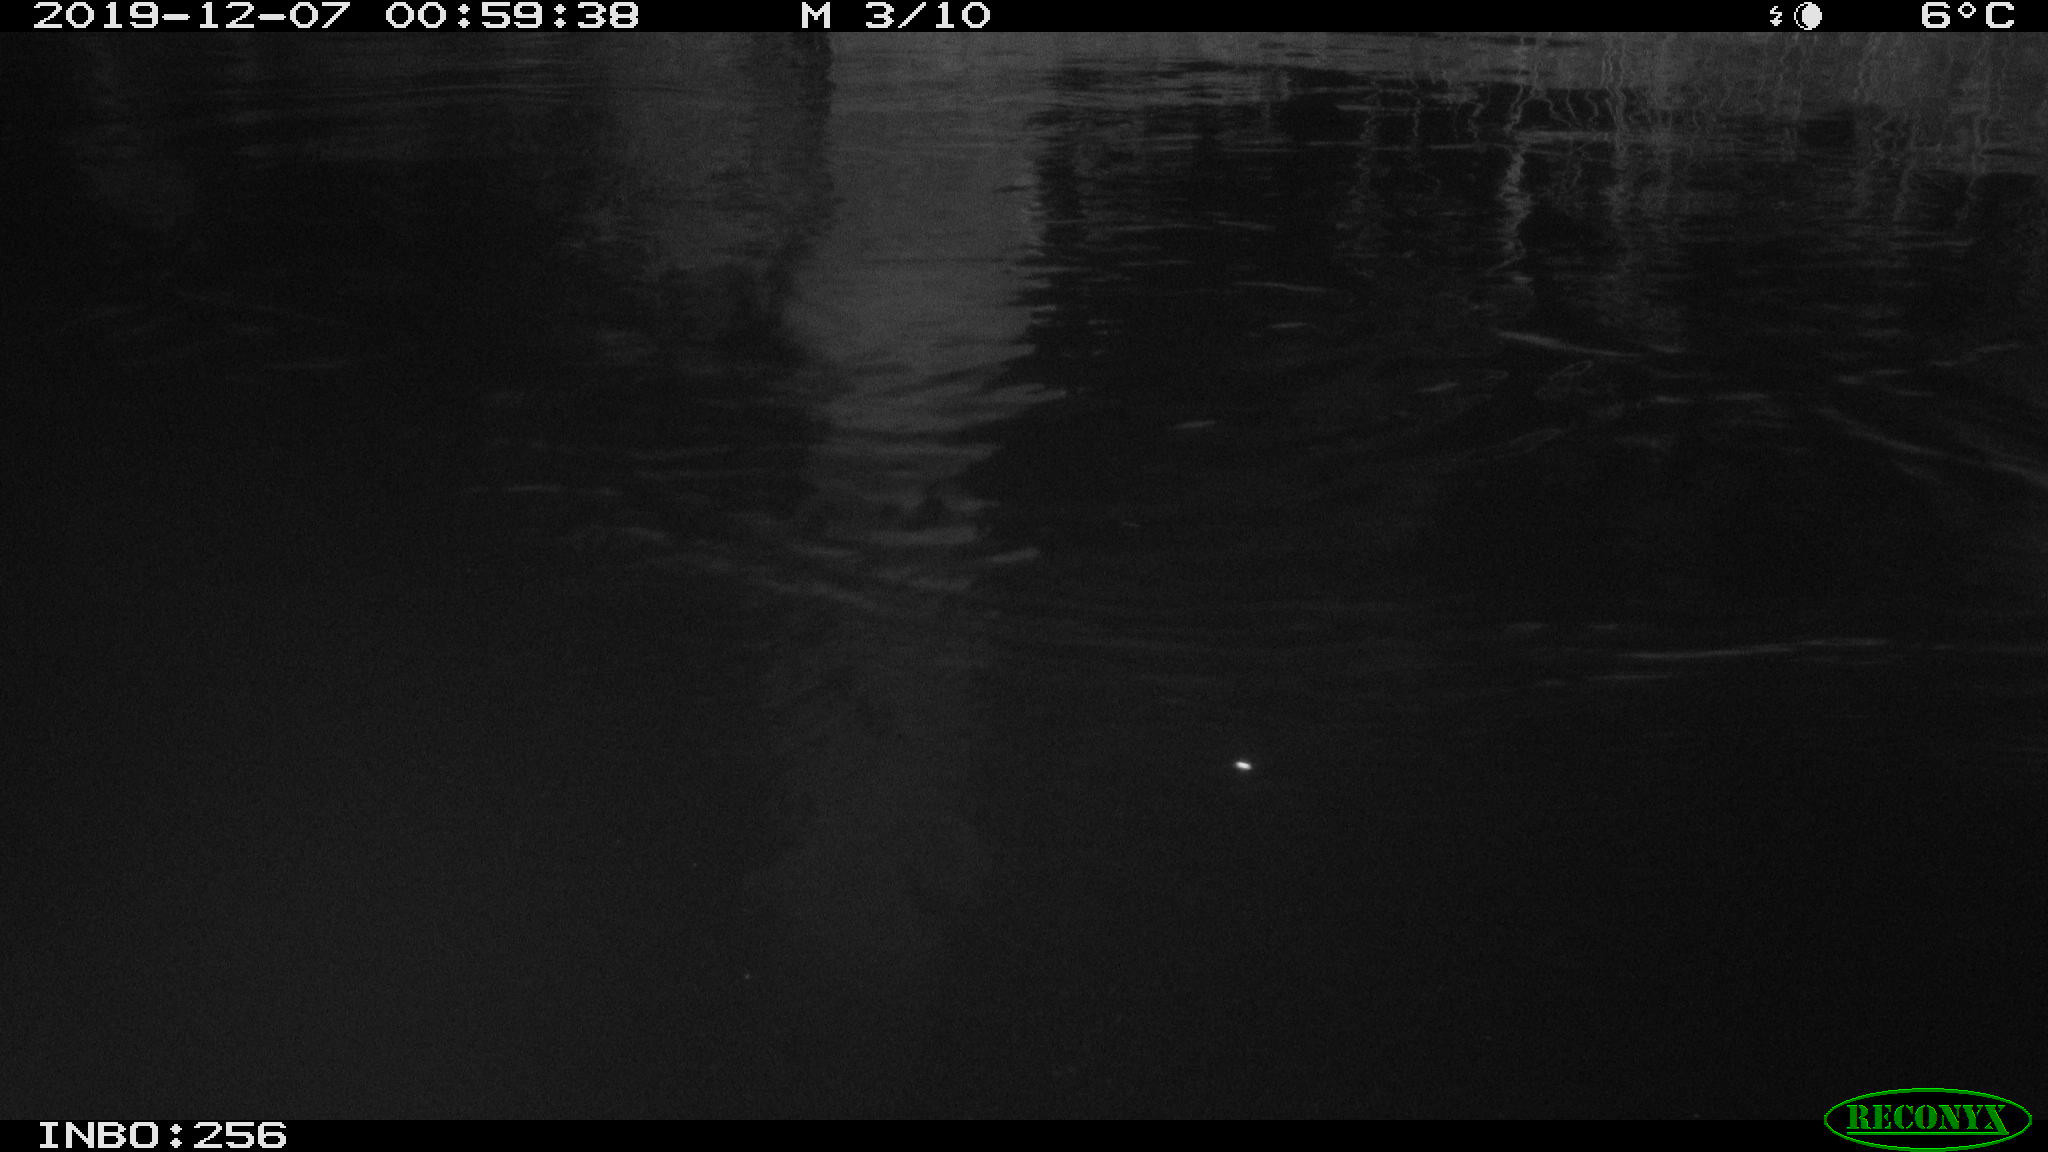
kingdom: Animalia
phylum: Chordata
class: Aves
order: Anseriformes
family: Anatidae
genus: Anas
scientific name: Anas platyrhynchos
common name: Mallard
